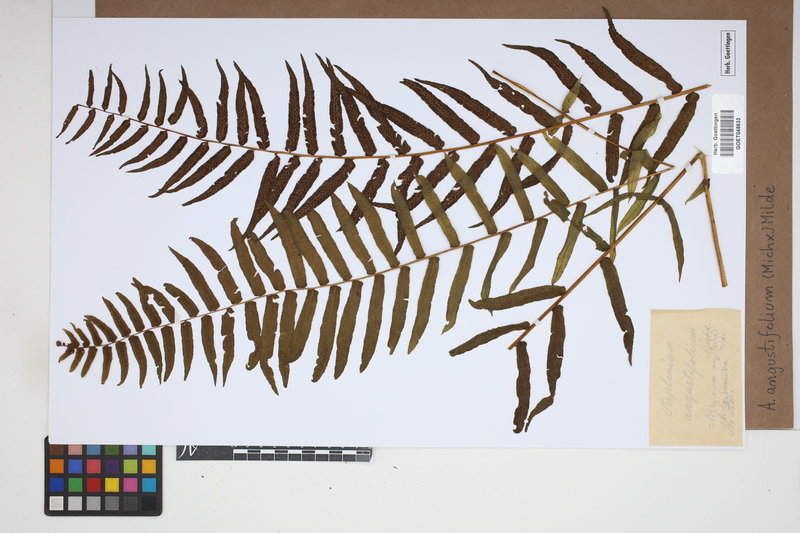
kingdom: Plantae
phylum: Tracheophyta
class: Polypodiopsida
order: Polypodiales
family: Diplaziopsidaceae
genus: Homalosorus
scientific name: Homalosorus pycnocarpos
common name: Glade fern
